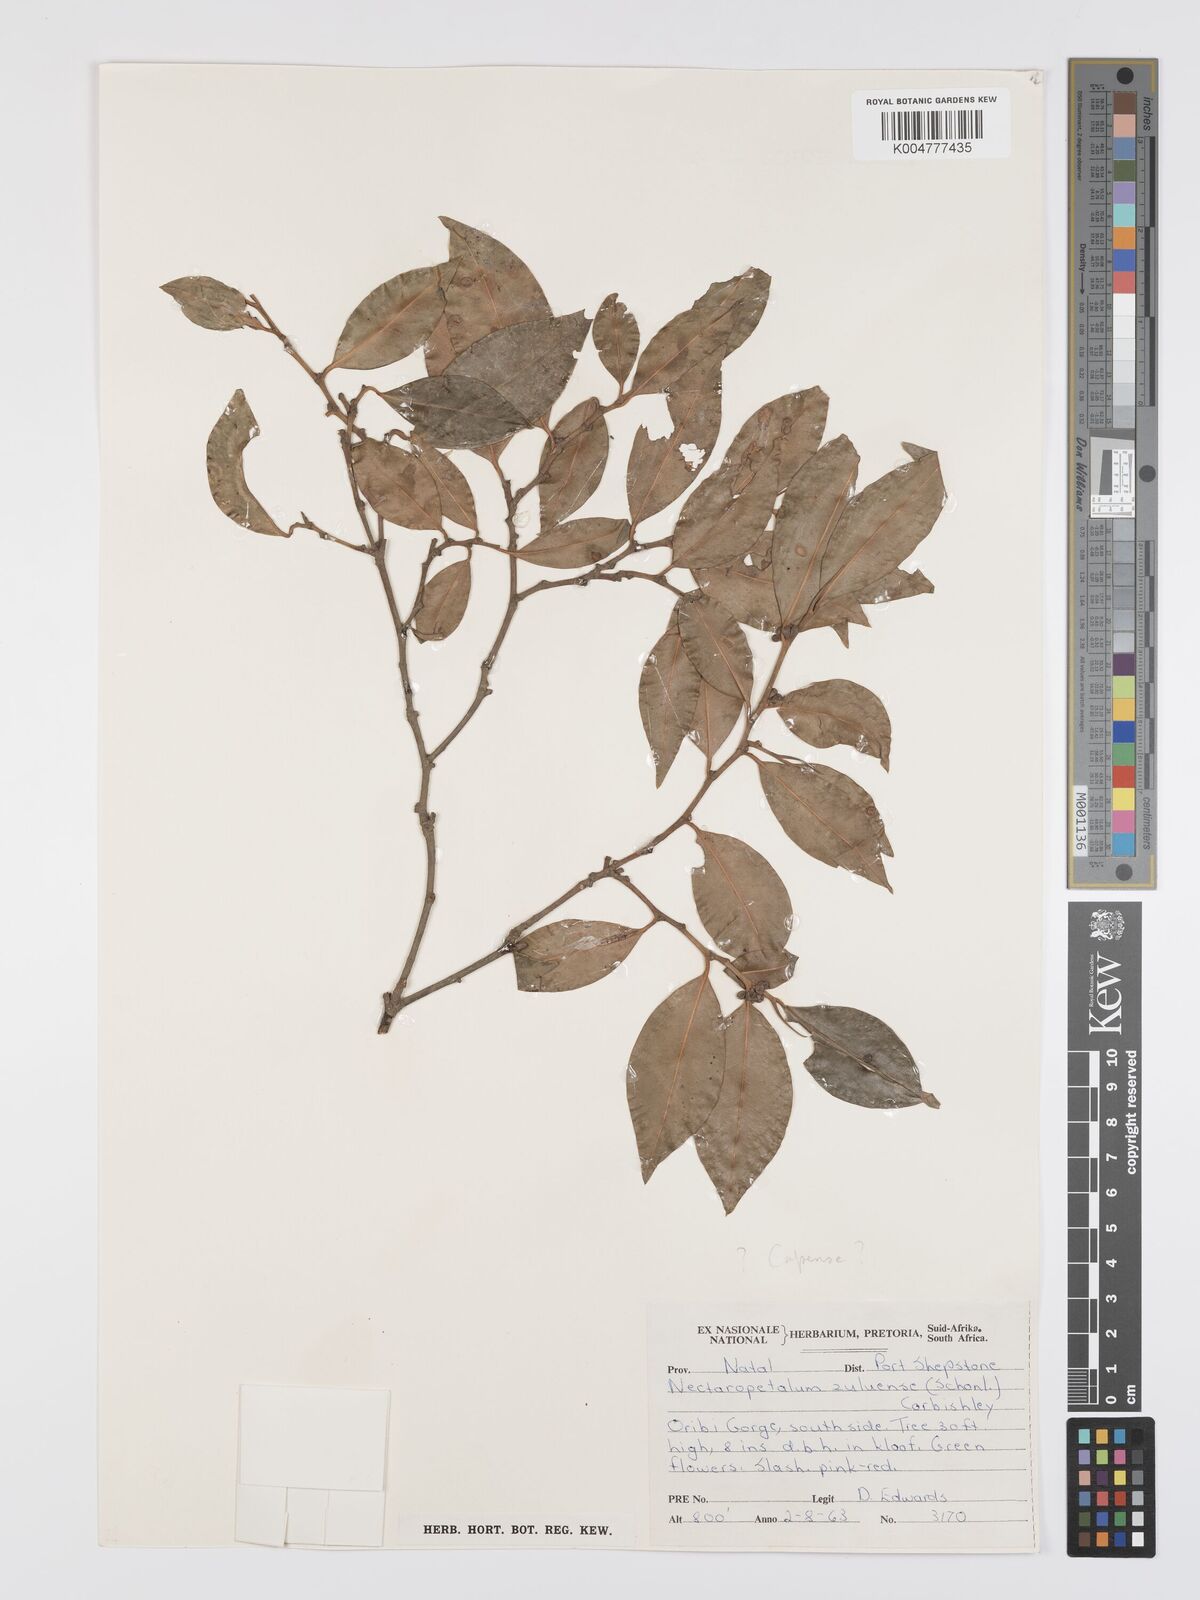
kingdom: Plantae
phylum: Tracheophyta
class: Magnoliopsida
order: Malpighiales
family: Erythroxylaceae
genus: Nectaropetalum
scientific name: Nectaropetalum capense
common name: Southern false coca-tree
